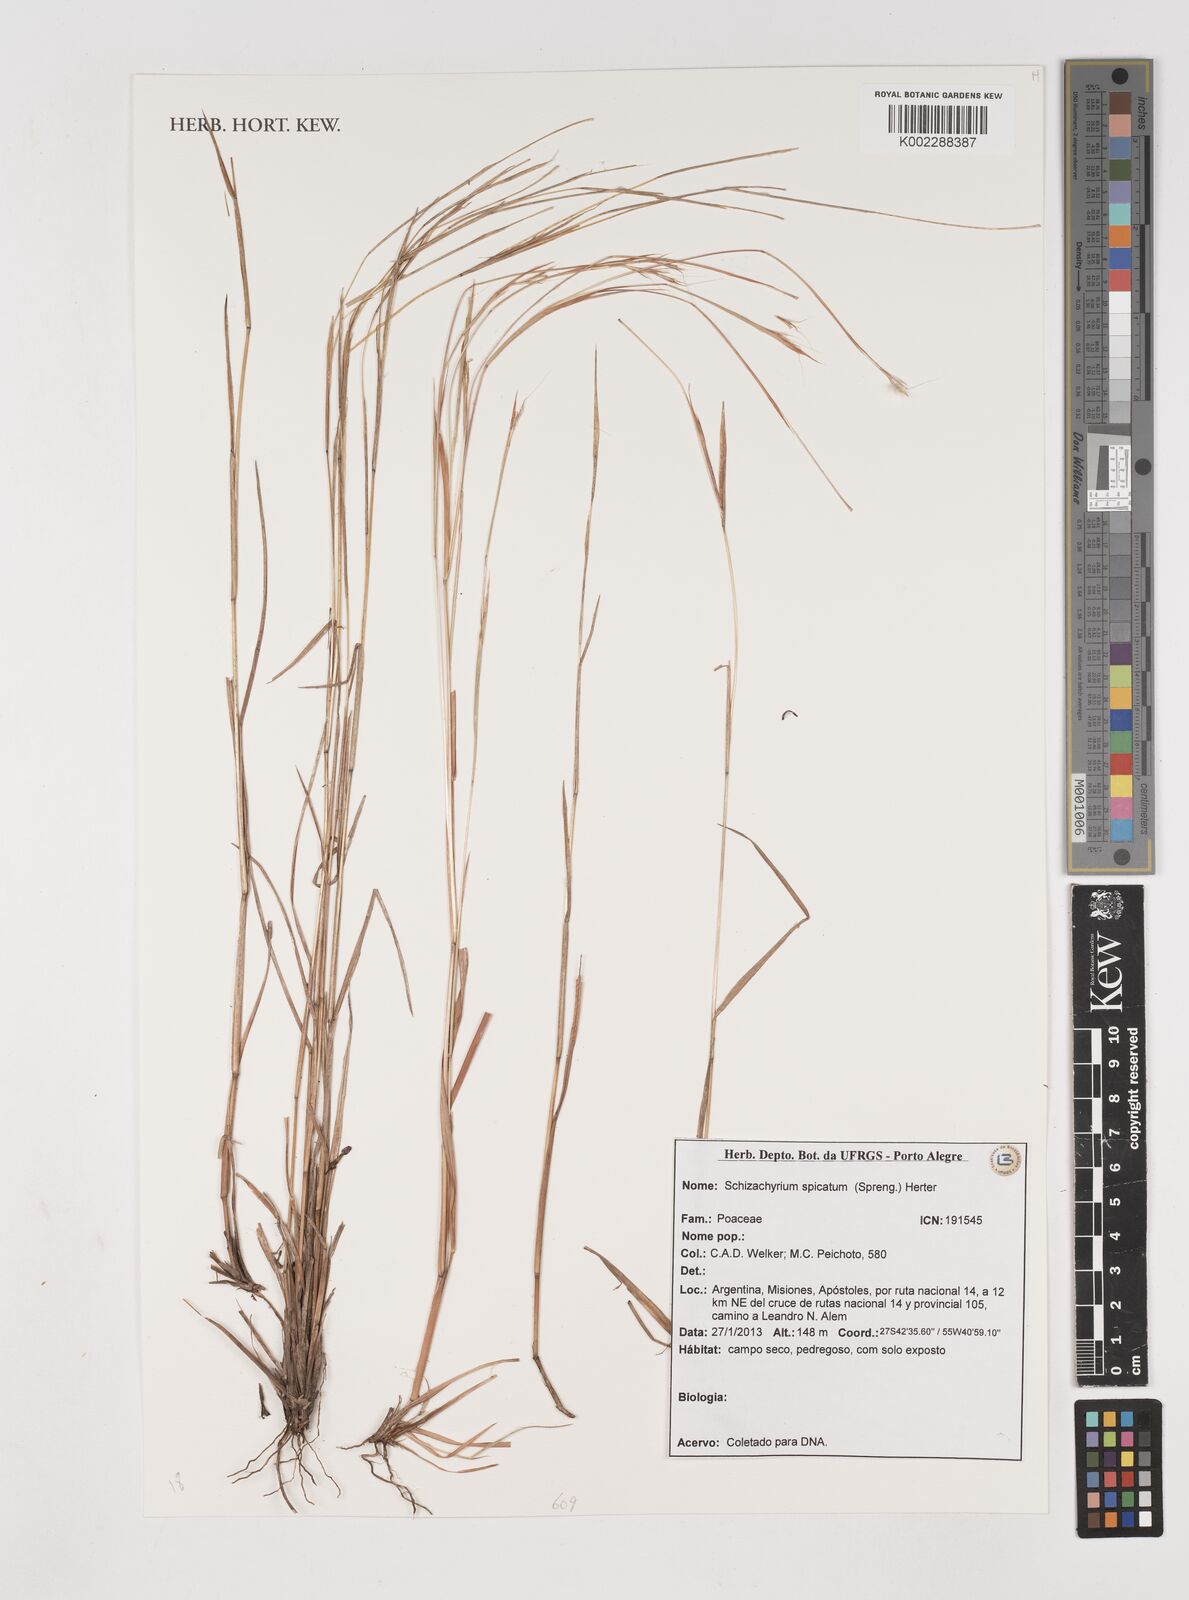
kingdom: Plantae
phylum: Tracheophyta
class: Liliopsida
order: Poales
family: Poaceae
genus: Schizachyrium
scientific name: Schizachyrium spicatum
